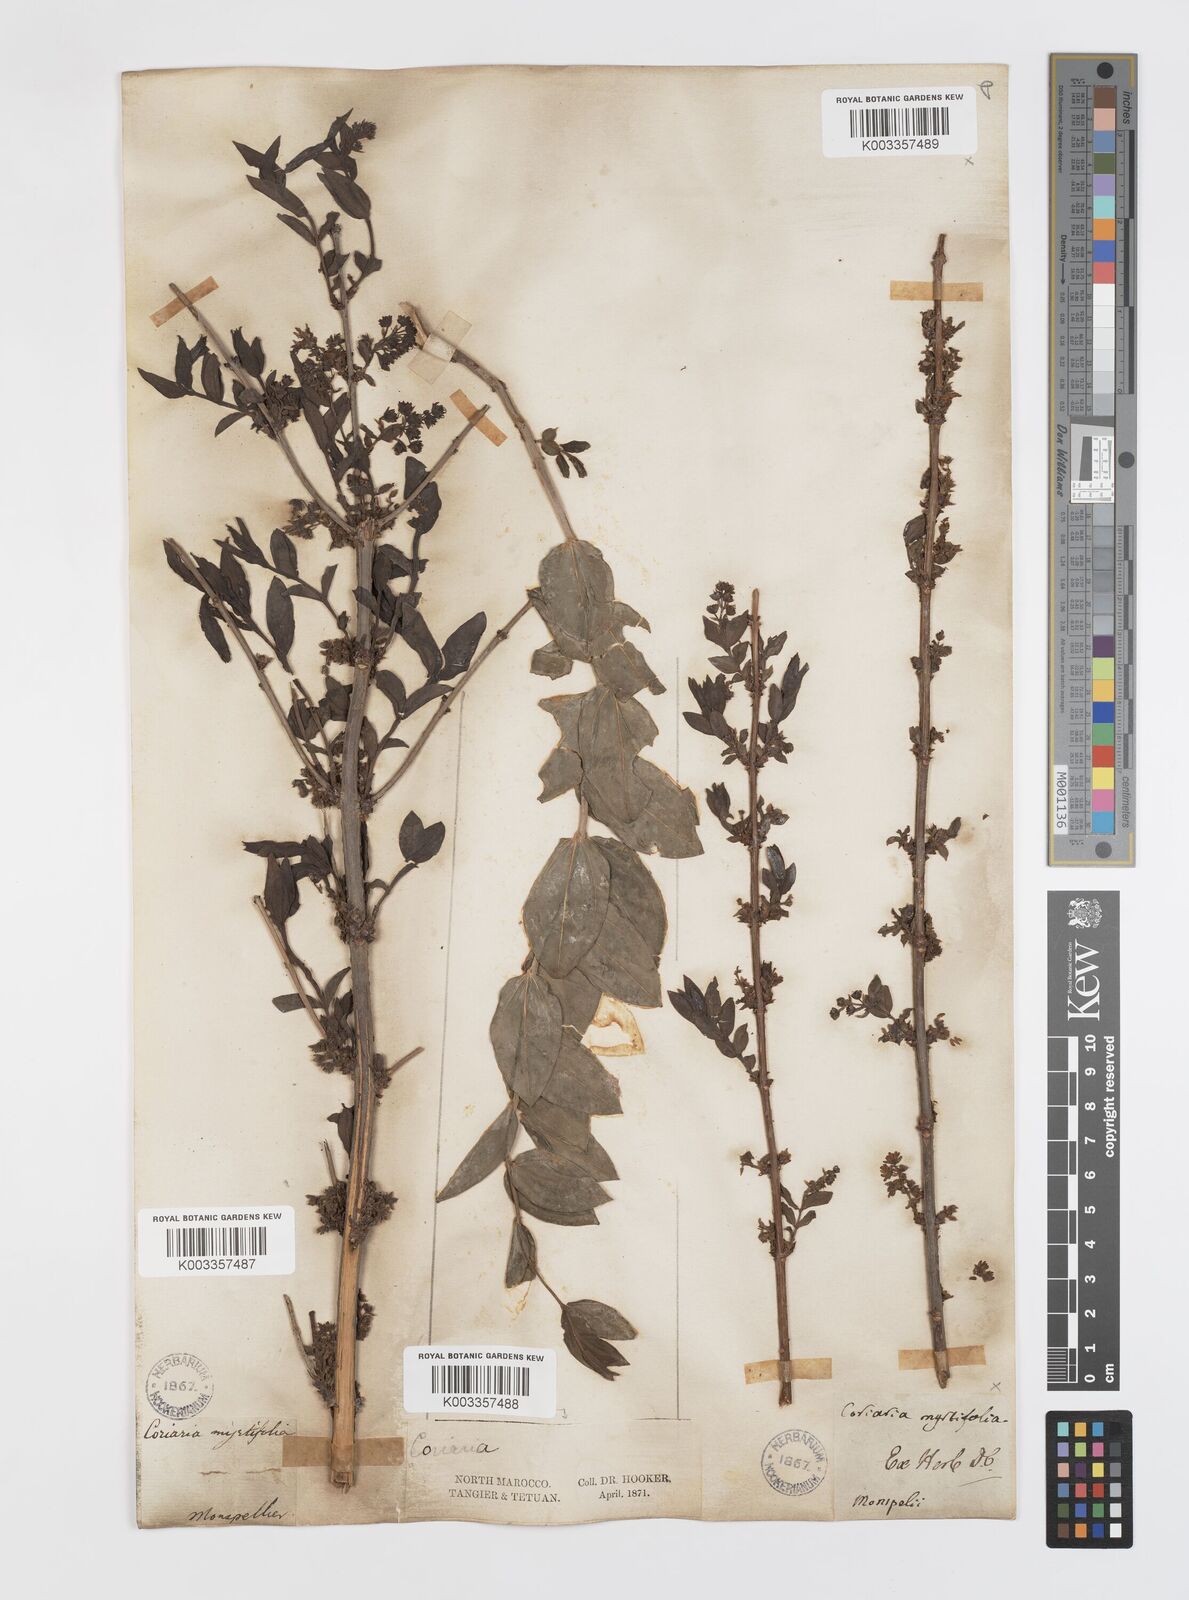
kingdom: Plantae
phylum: Tracheophyta
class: Magnoliopsida
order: Cucurbitales
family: Coriariaceae
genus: Coriaria
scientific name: Coriaria
